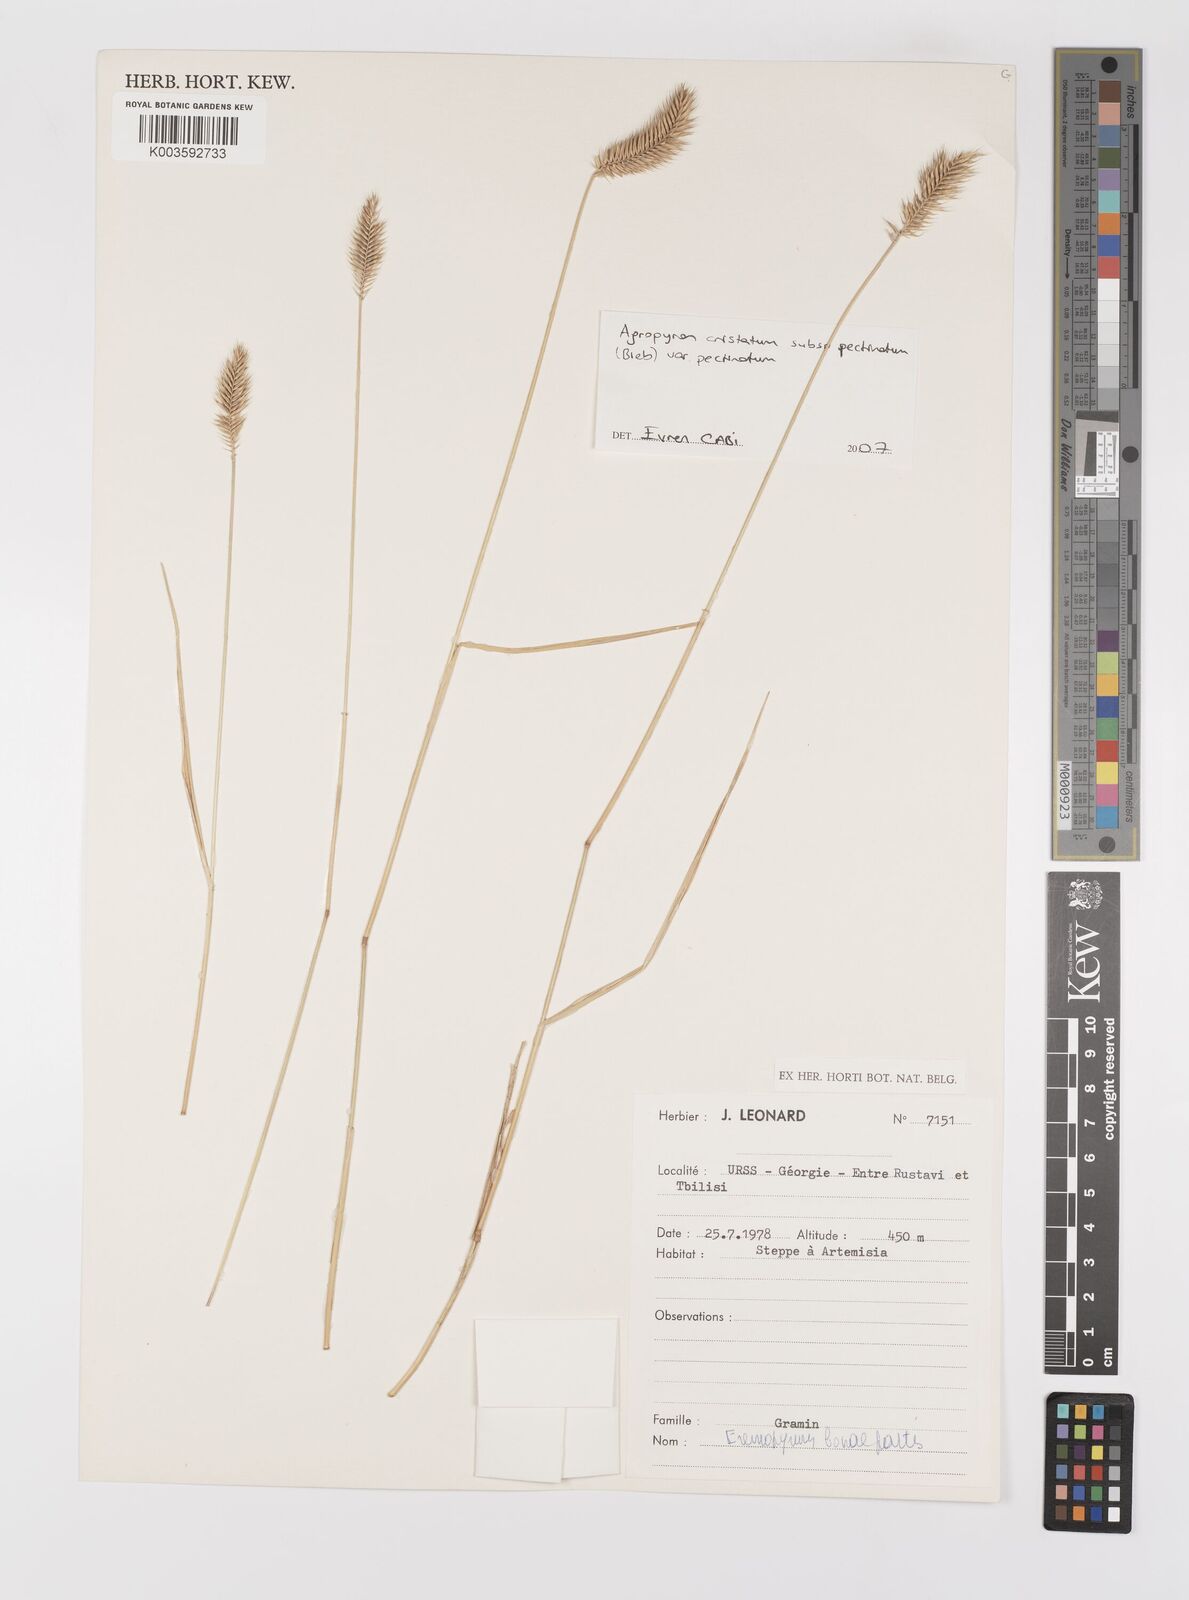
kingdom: Plantae
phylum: Tracheophyta
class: Liliopsida
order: Poales
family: Poaceae
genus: Agropyron
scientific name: Agropyron cristatum
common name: Crested wheatgrass
